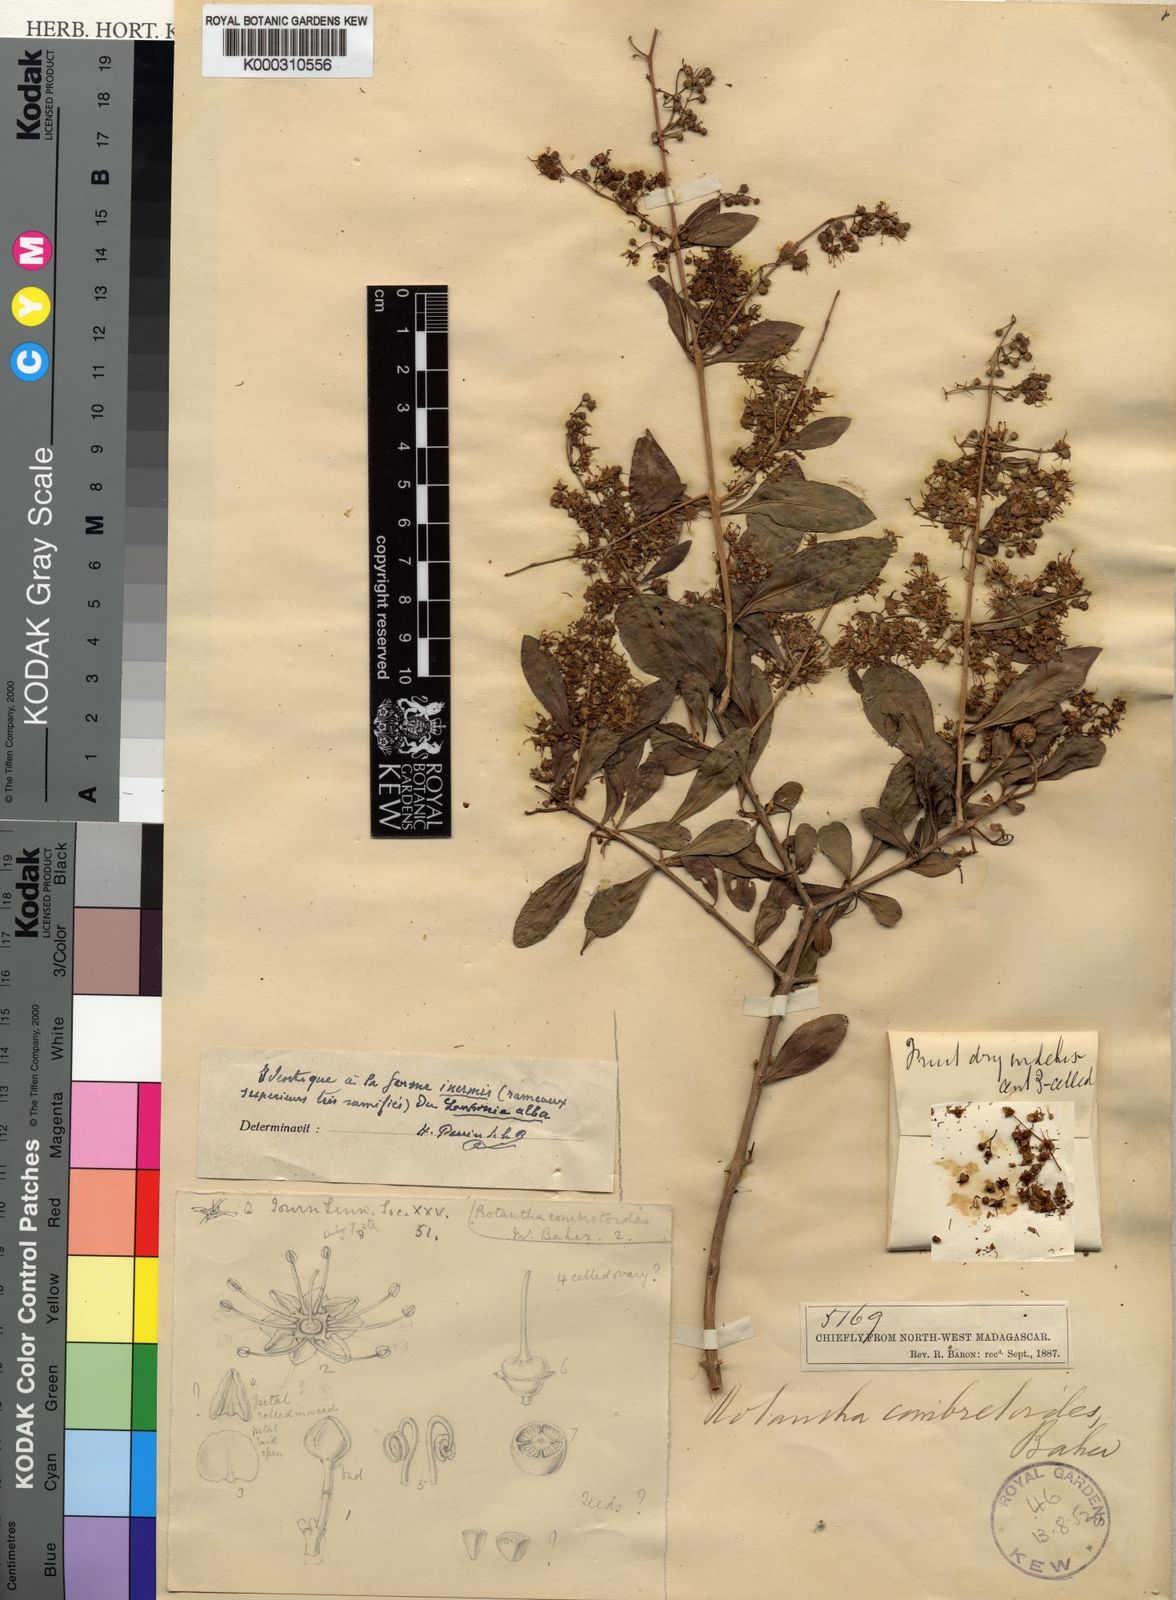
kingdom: Plantae
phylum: Tracheophyta
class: Magnoliopsida
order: Myrtales
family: Lythraceae
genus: Lawsonia
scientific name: Lawsonia
